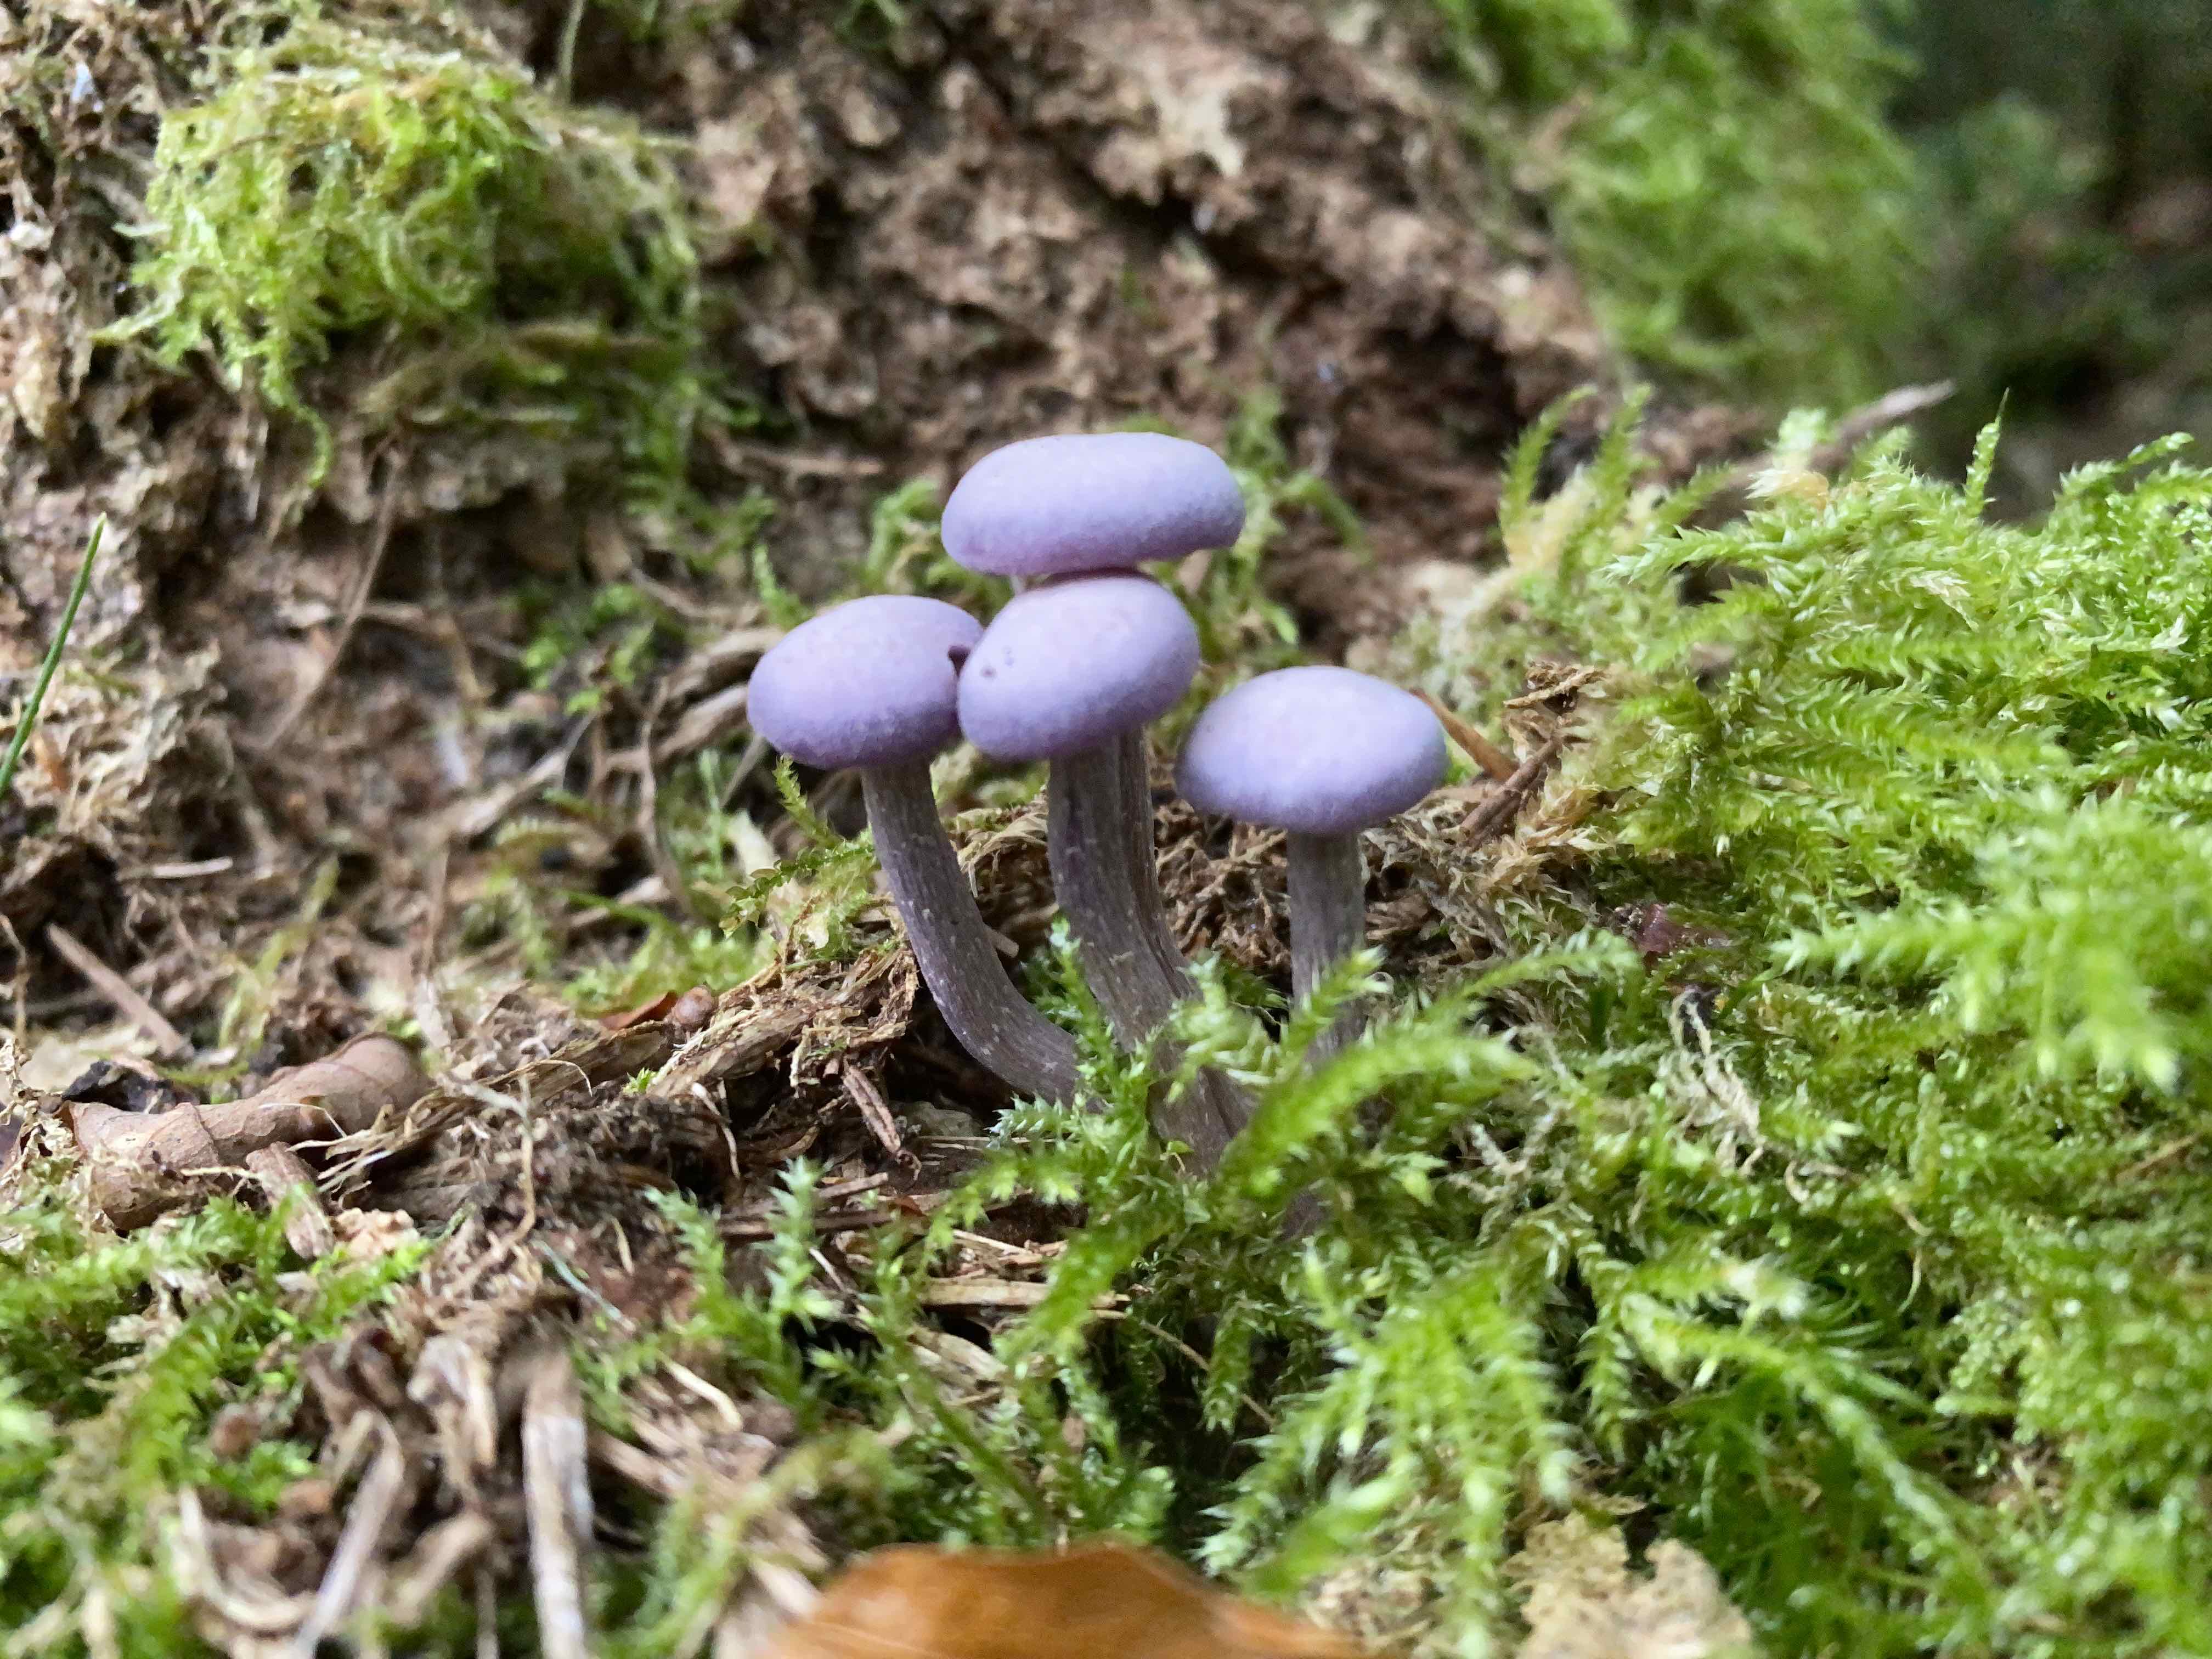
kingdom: Fungi
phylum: Basidiomycota
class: Agaricomycetes
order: Agaricales
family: Hydnangiaceae
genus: Laccaria
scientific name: Laccaria amethystina
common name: violet ametysthat
